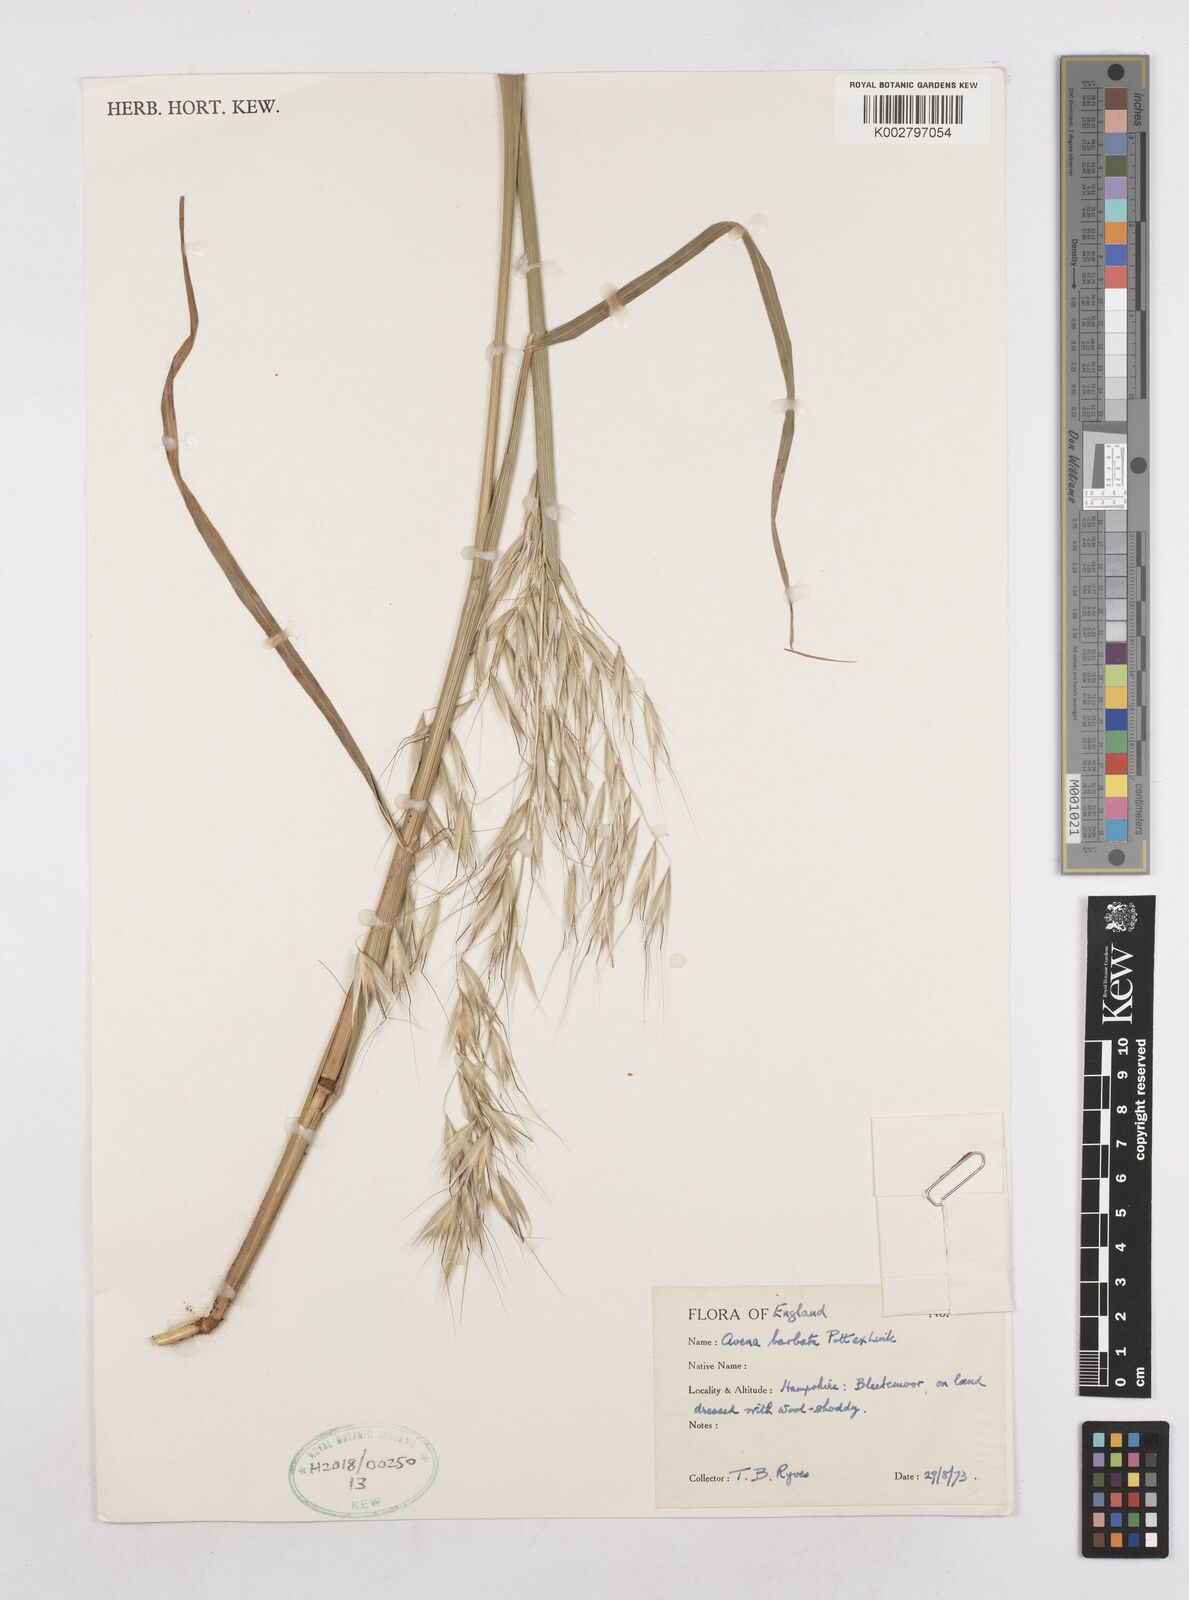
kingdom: Plantae
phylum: Tracheophyta
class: Liliopsida
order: Poales
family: Poaceae
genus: Avena
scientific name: Avena
